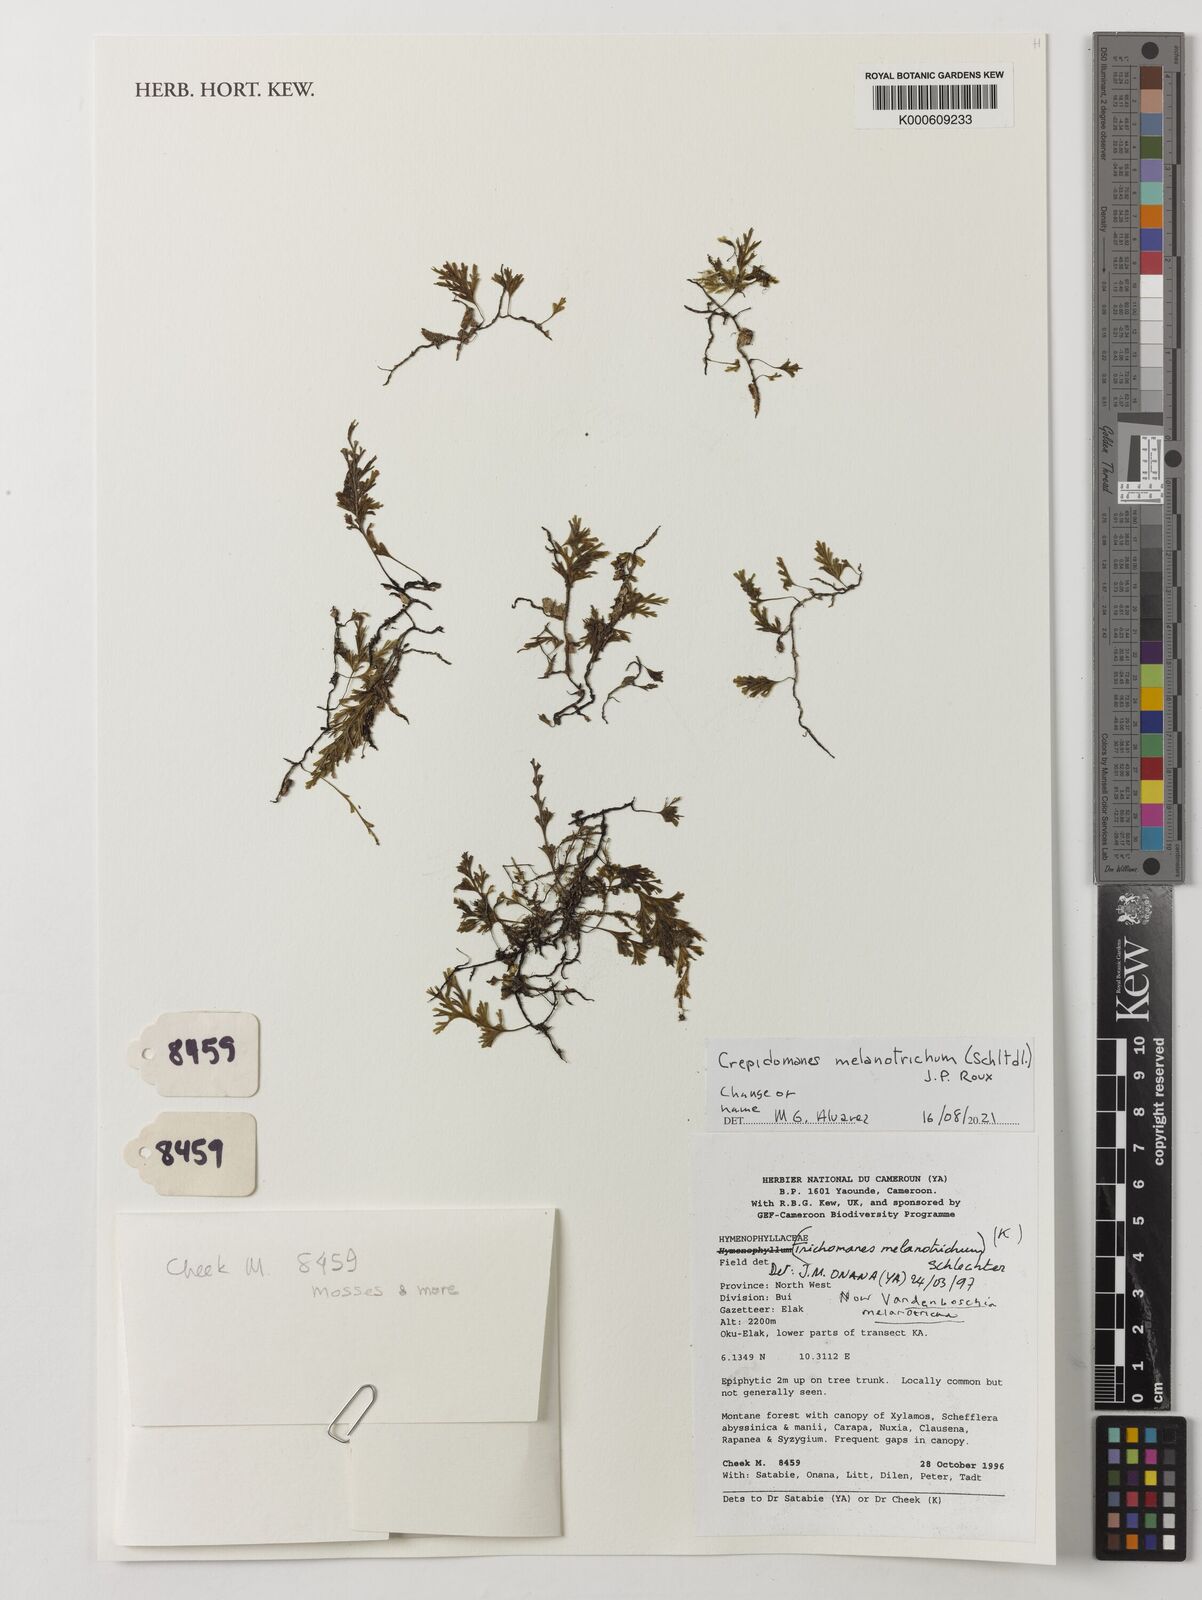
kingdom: Plantae
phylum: Tracheophyta
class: Polypodiopsida
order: Hymenophyllales
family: Hymenophyllaceae
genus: Crepidomanes
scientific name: Crepidomanes melanotrichum
